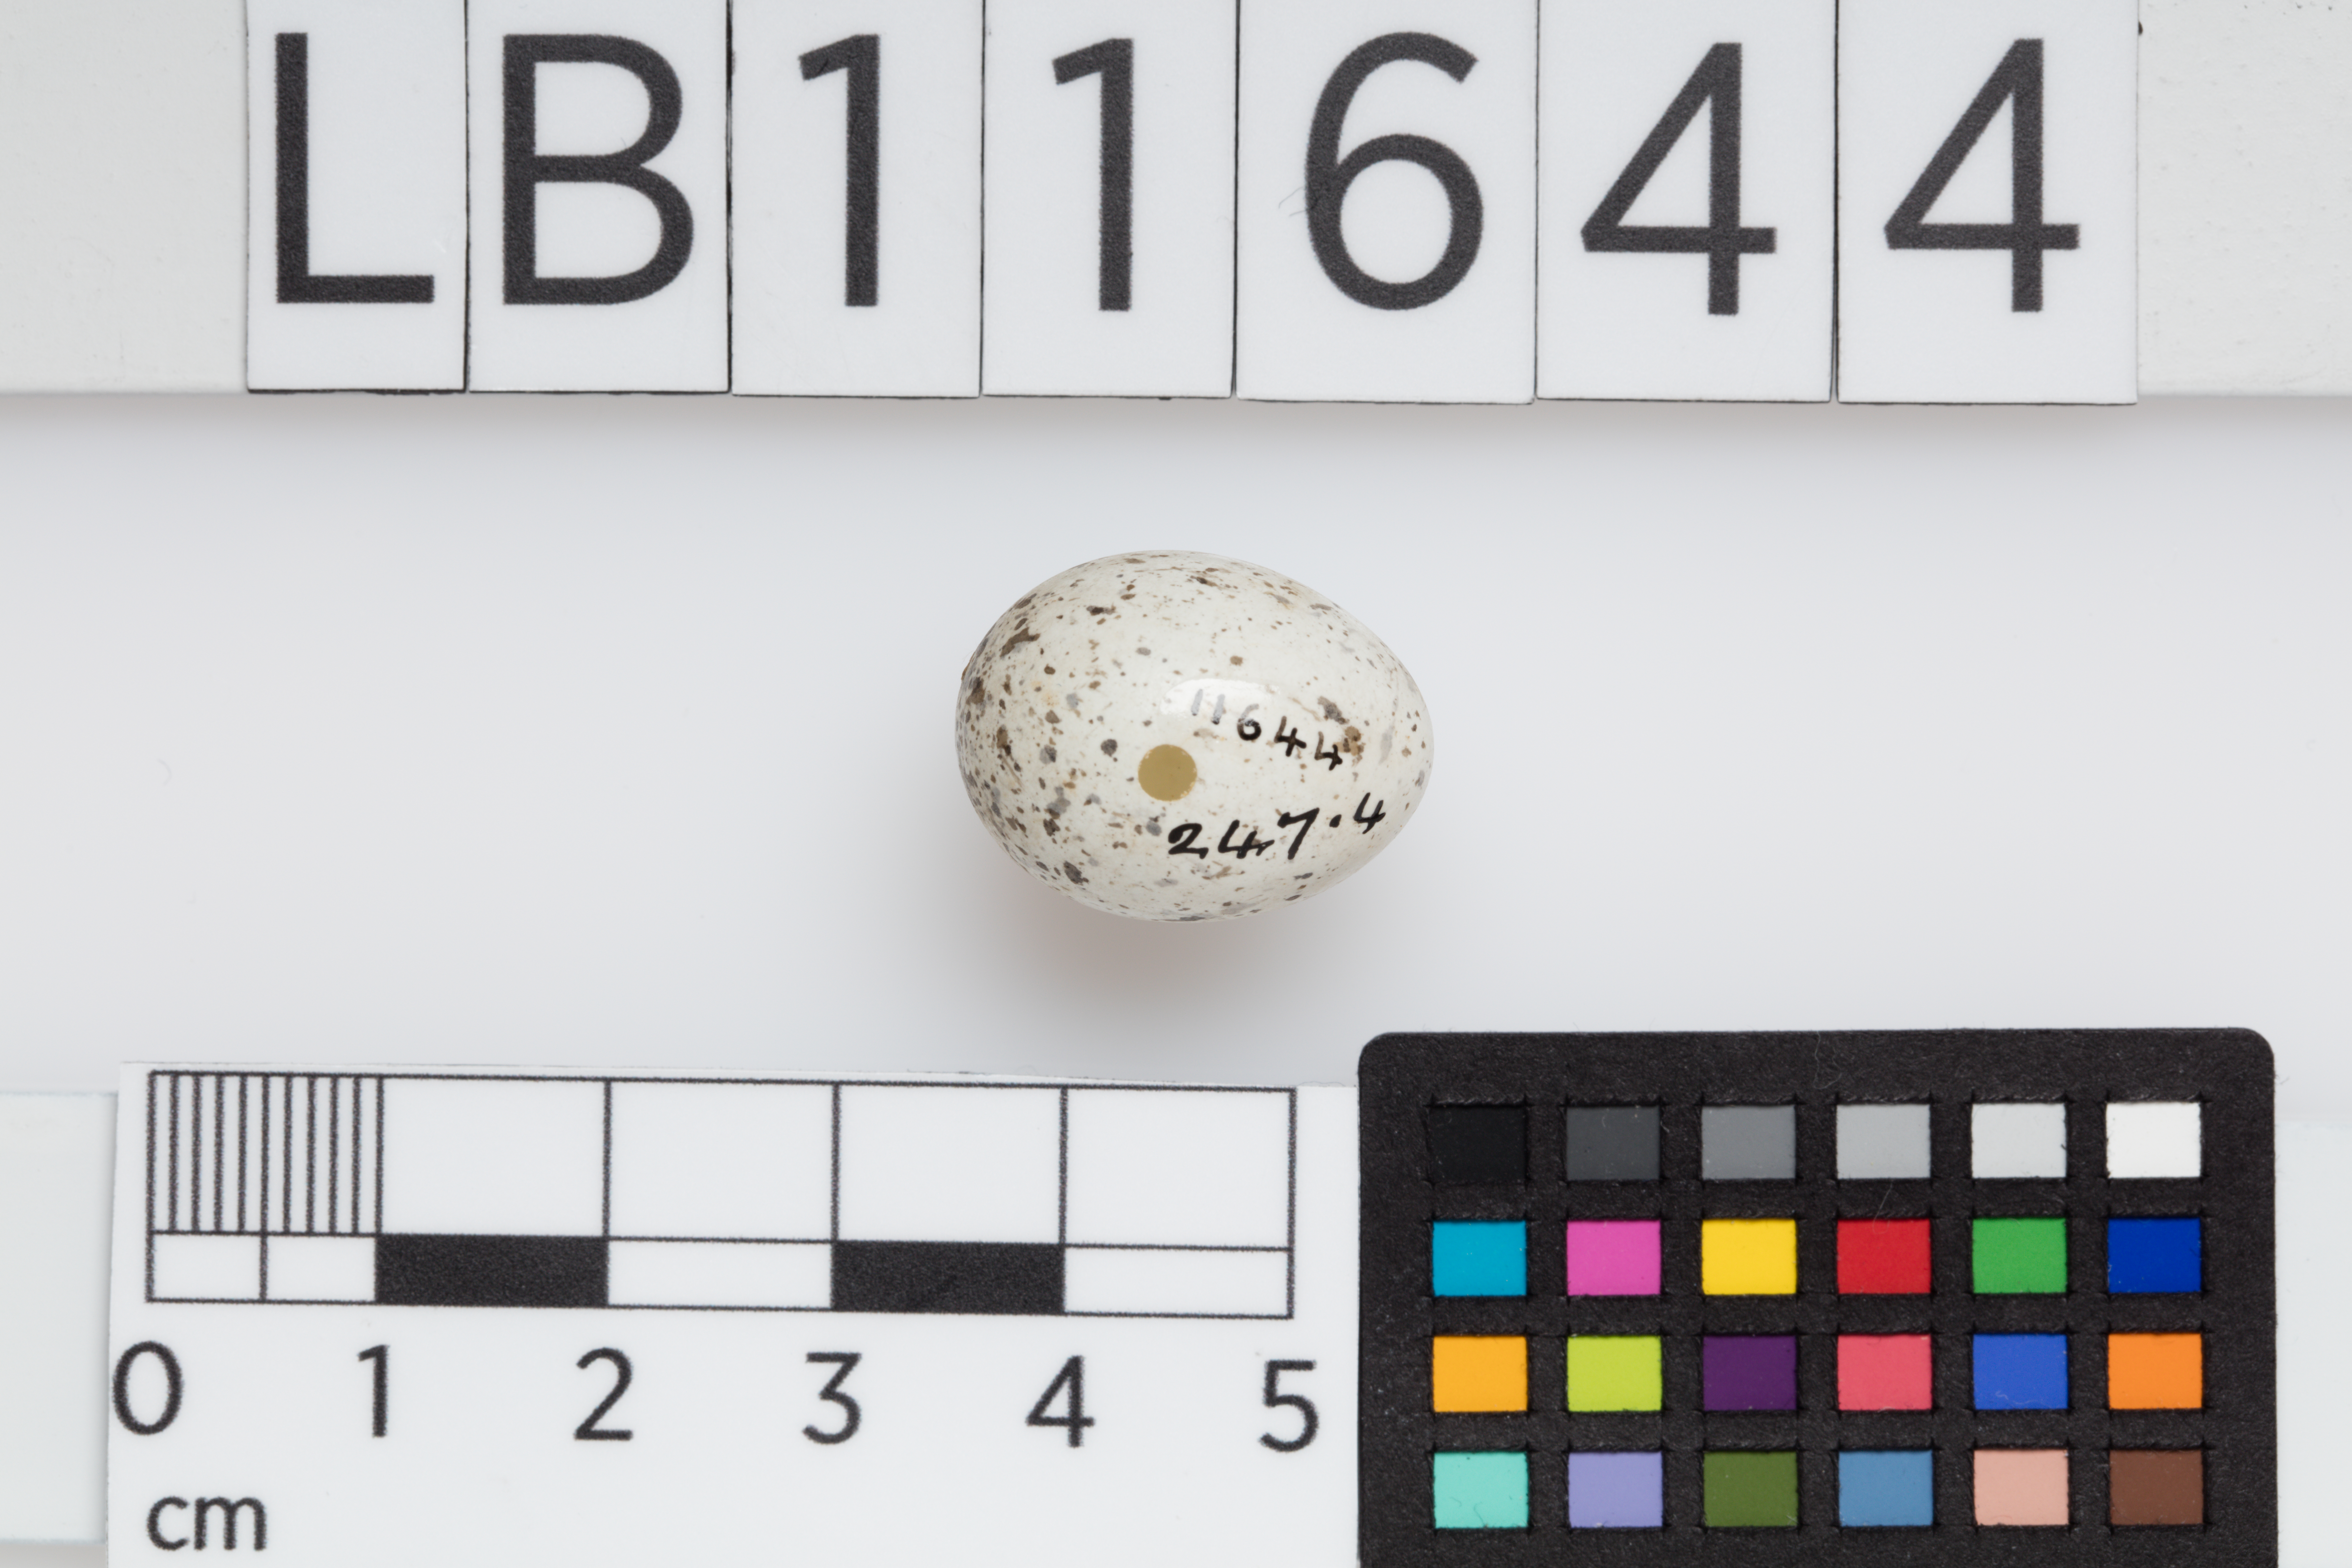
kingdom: Animalia
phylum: Chordata
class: Aves
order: Passeriformes
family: Passeridae
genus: Passer
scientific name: Passer domesticus
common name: House sparrow
